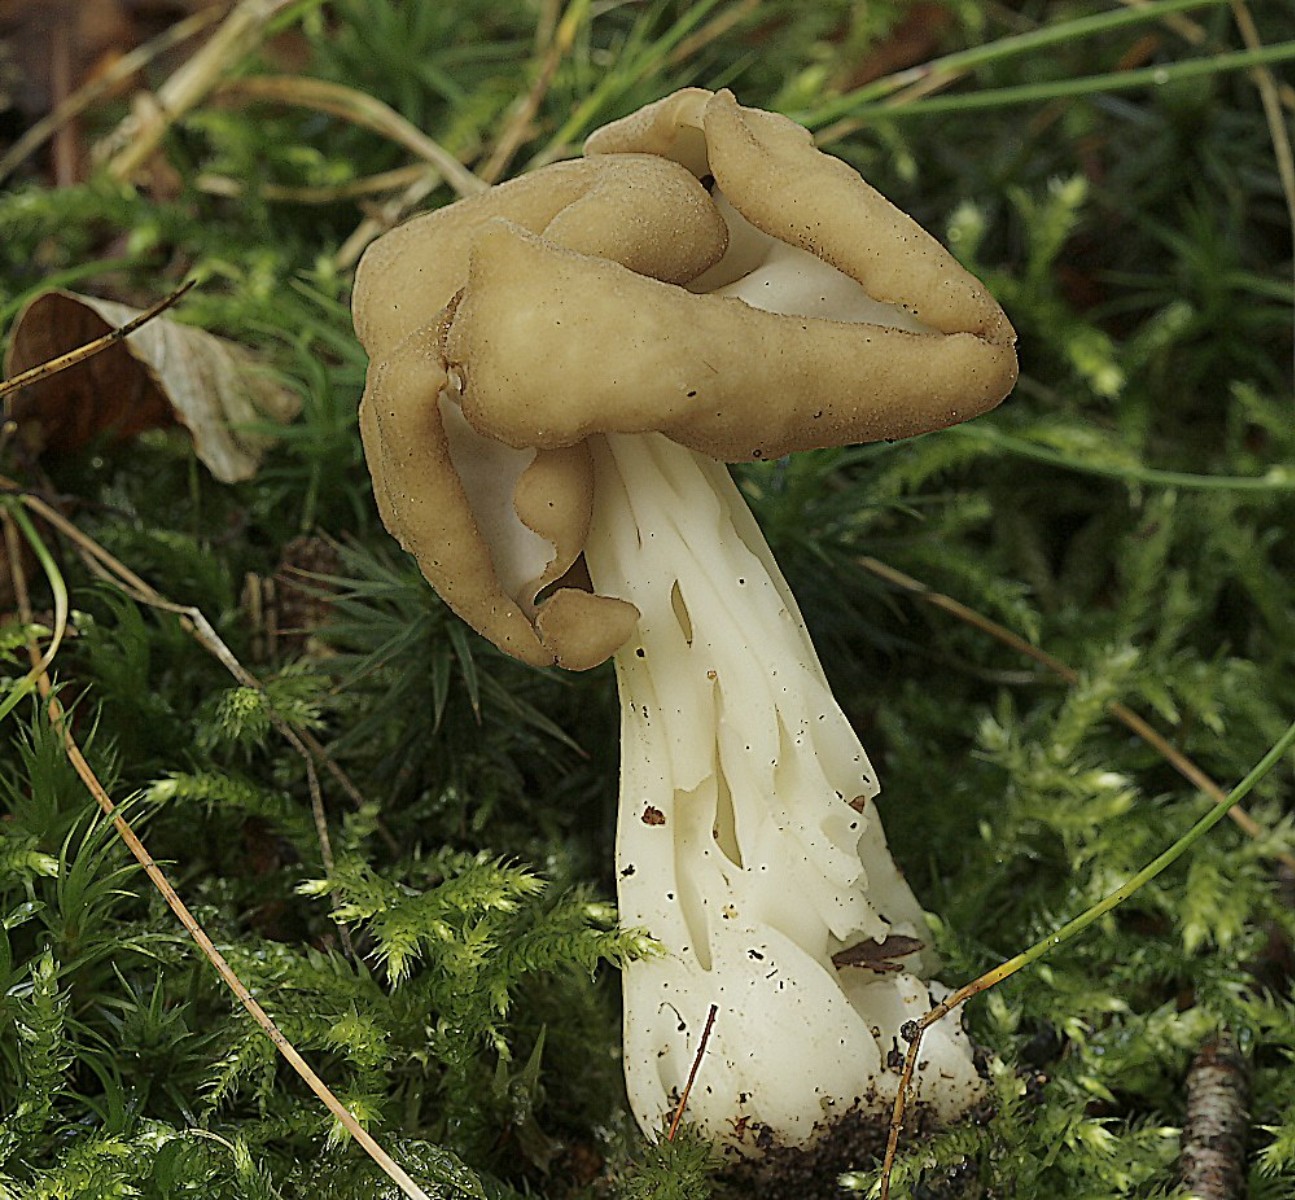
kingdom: Fungi
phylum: Ascomycota
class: Pezizomycetes
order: Pezizales
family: Helvellaceae
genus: Helvella
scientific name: Helvella crispa
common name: kruset foldhat
